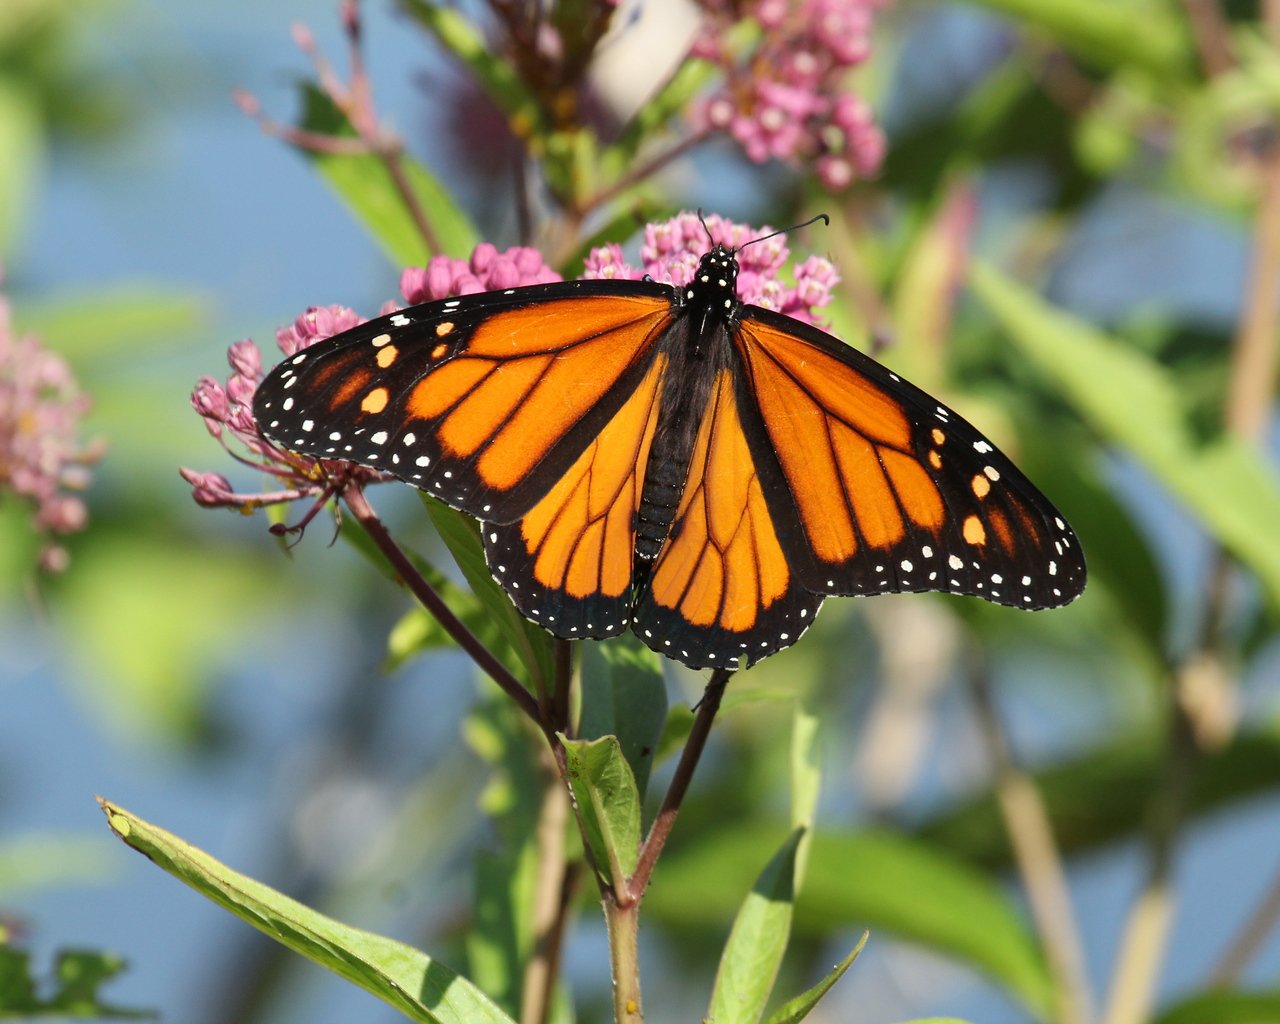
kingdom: Animalia
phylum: Arthropoda
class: Insecta
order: Lepidoptera
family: Nymphalidae
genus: Danaus
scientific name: Danaus plexippus
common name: Monarch
